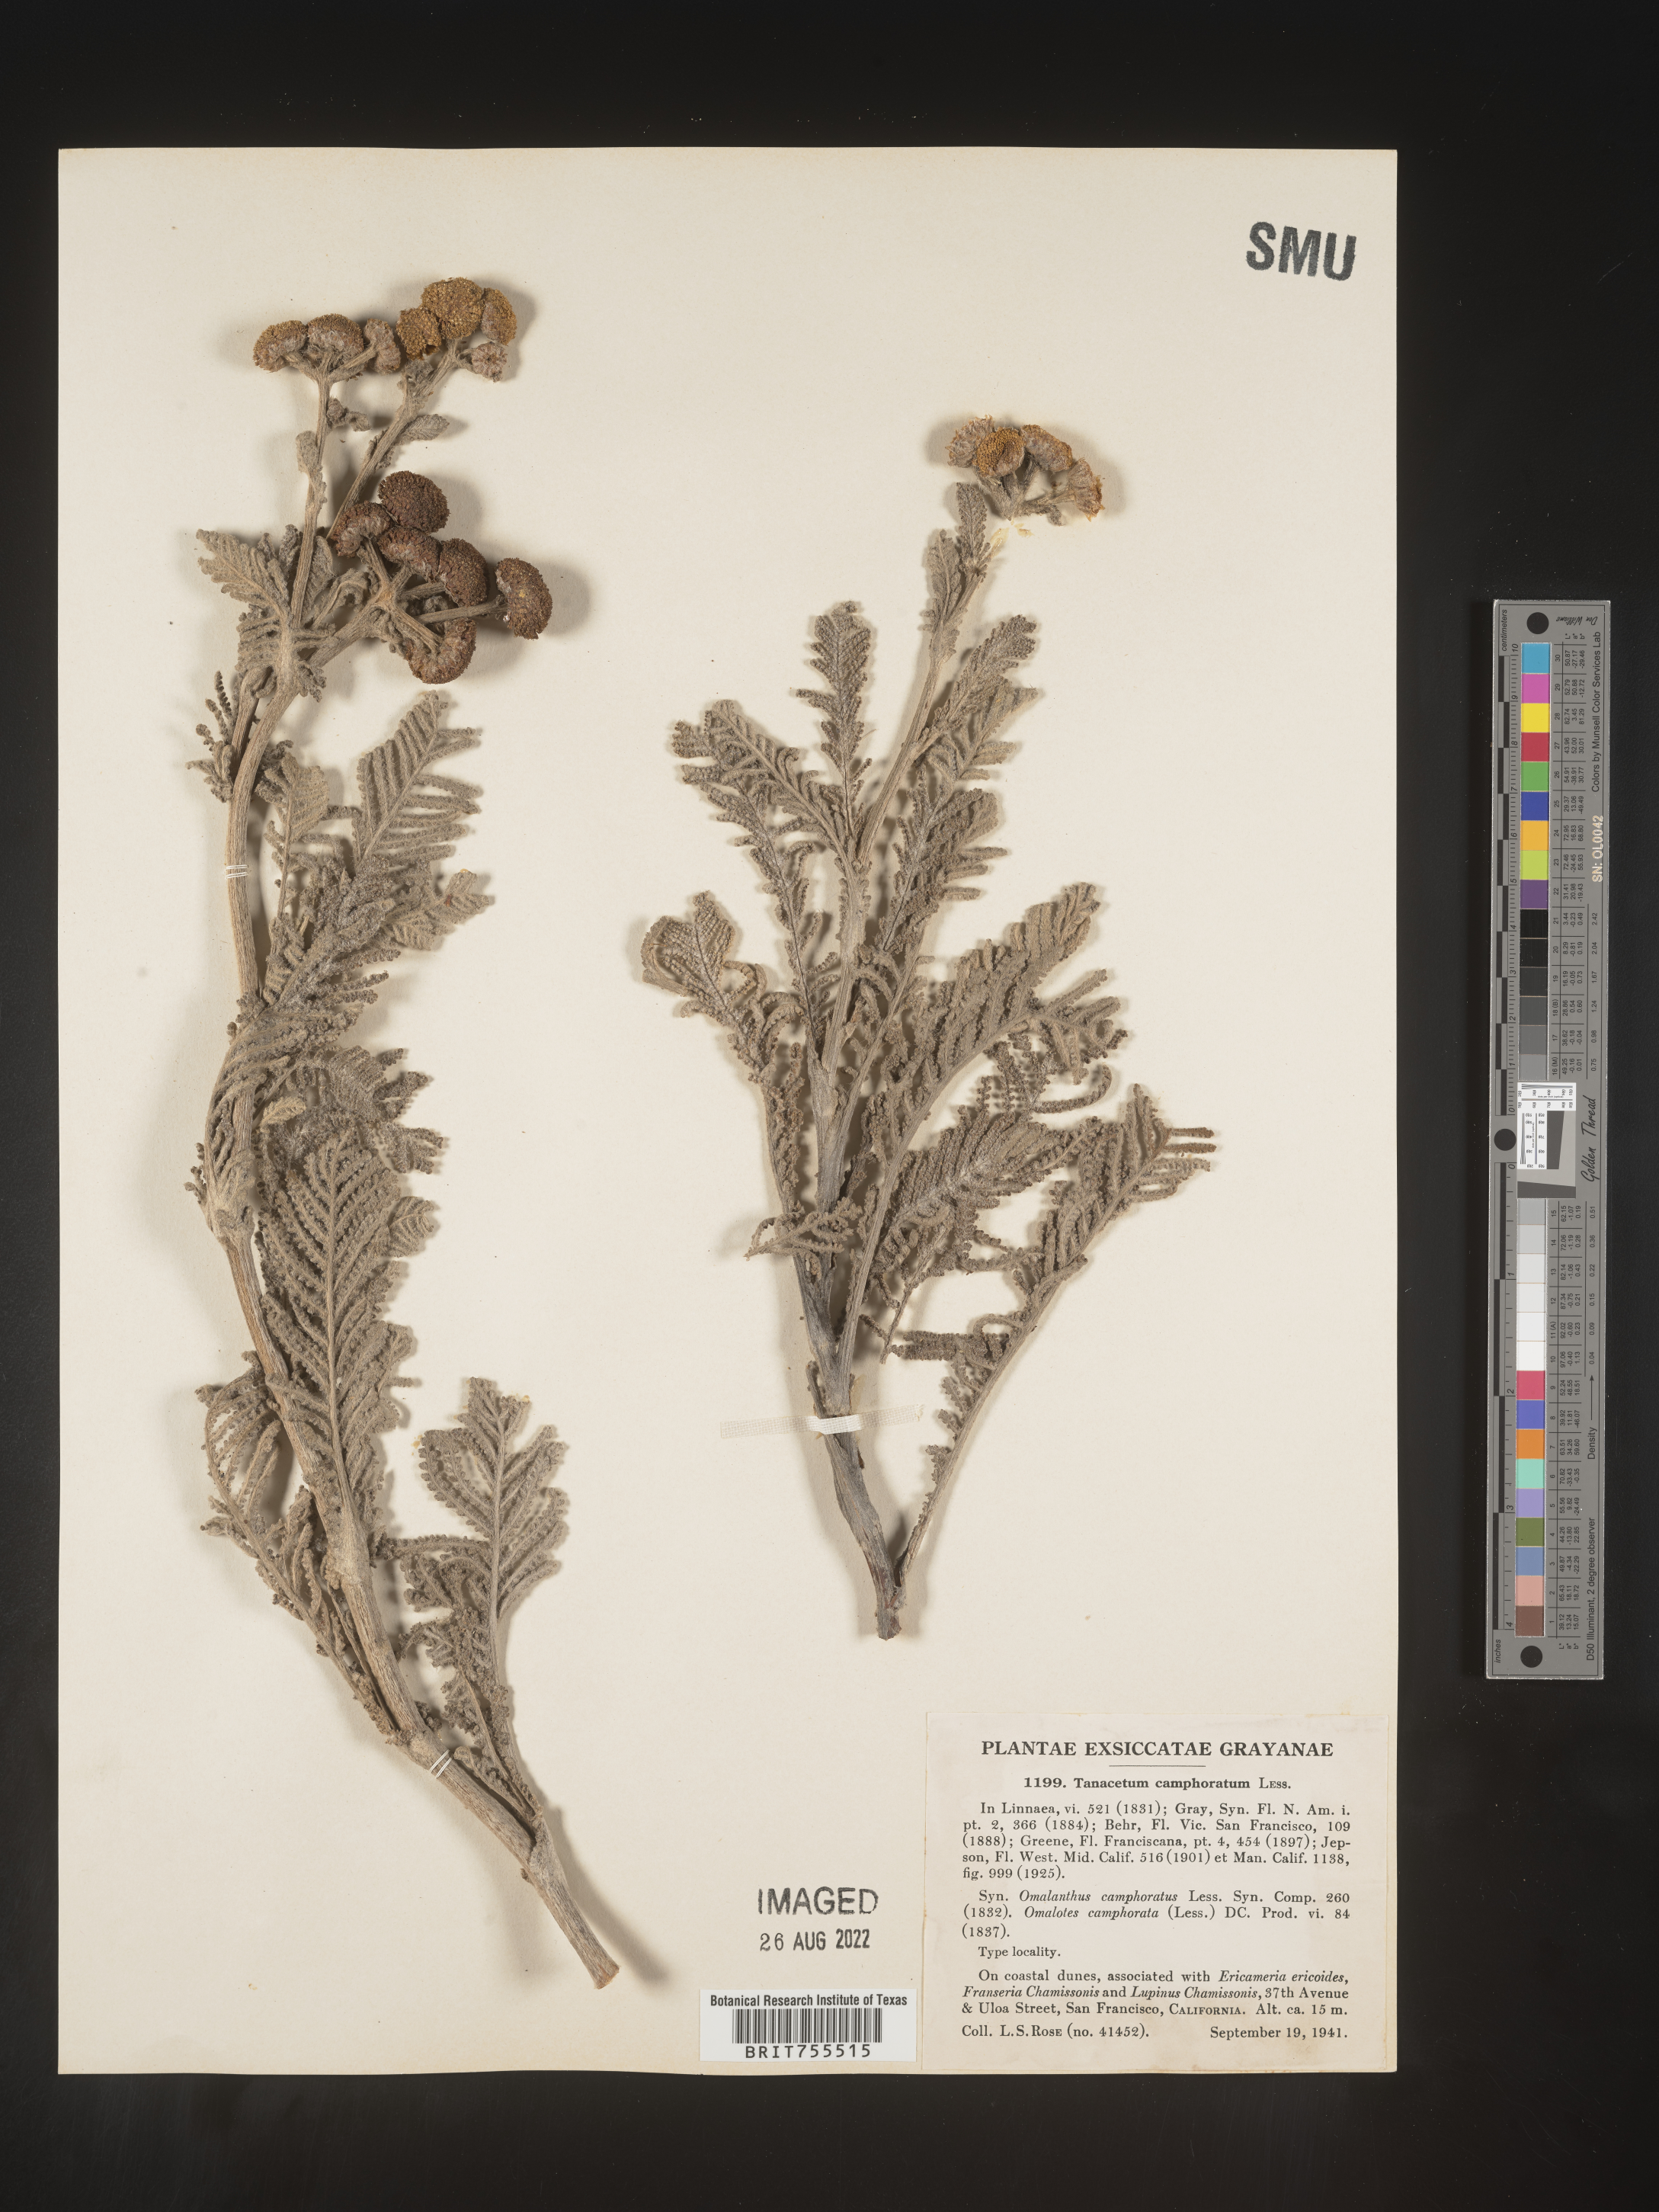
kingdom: Plantae
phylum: Tracheophyta
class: Magnoliopsida
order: Asterales
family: Asteraceae
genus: Tanacetum
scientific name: Tanacetum bipinnatum
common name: Dwarf tansy
